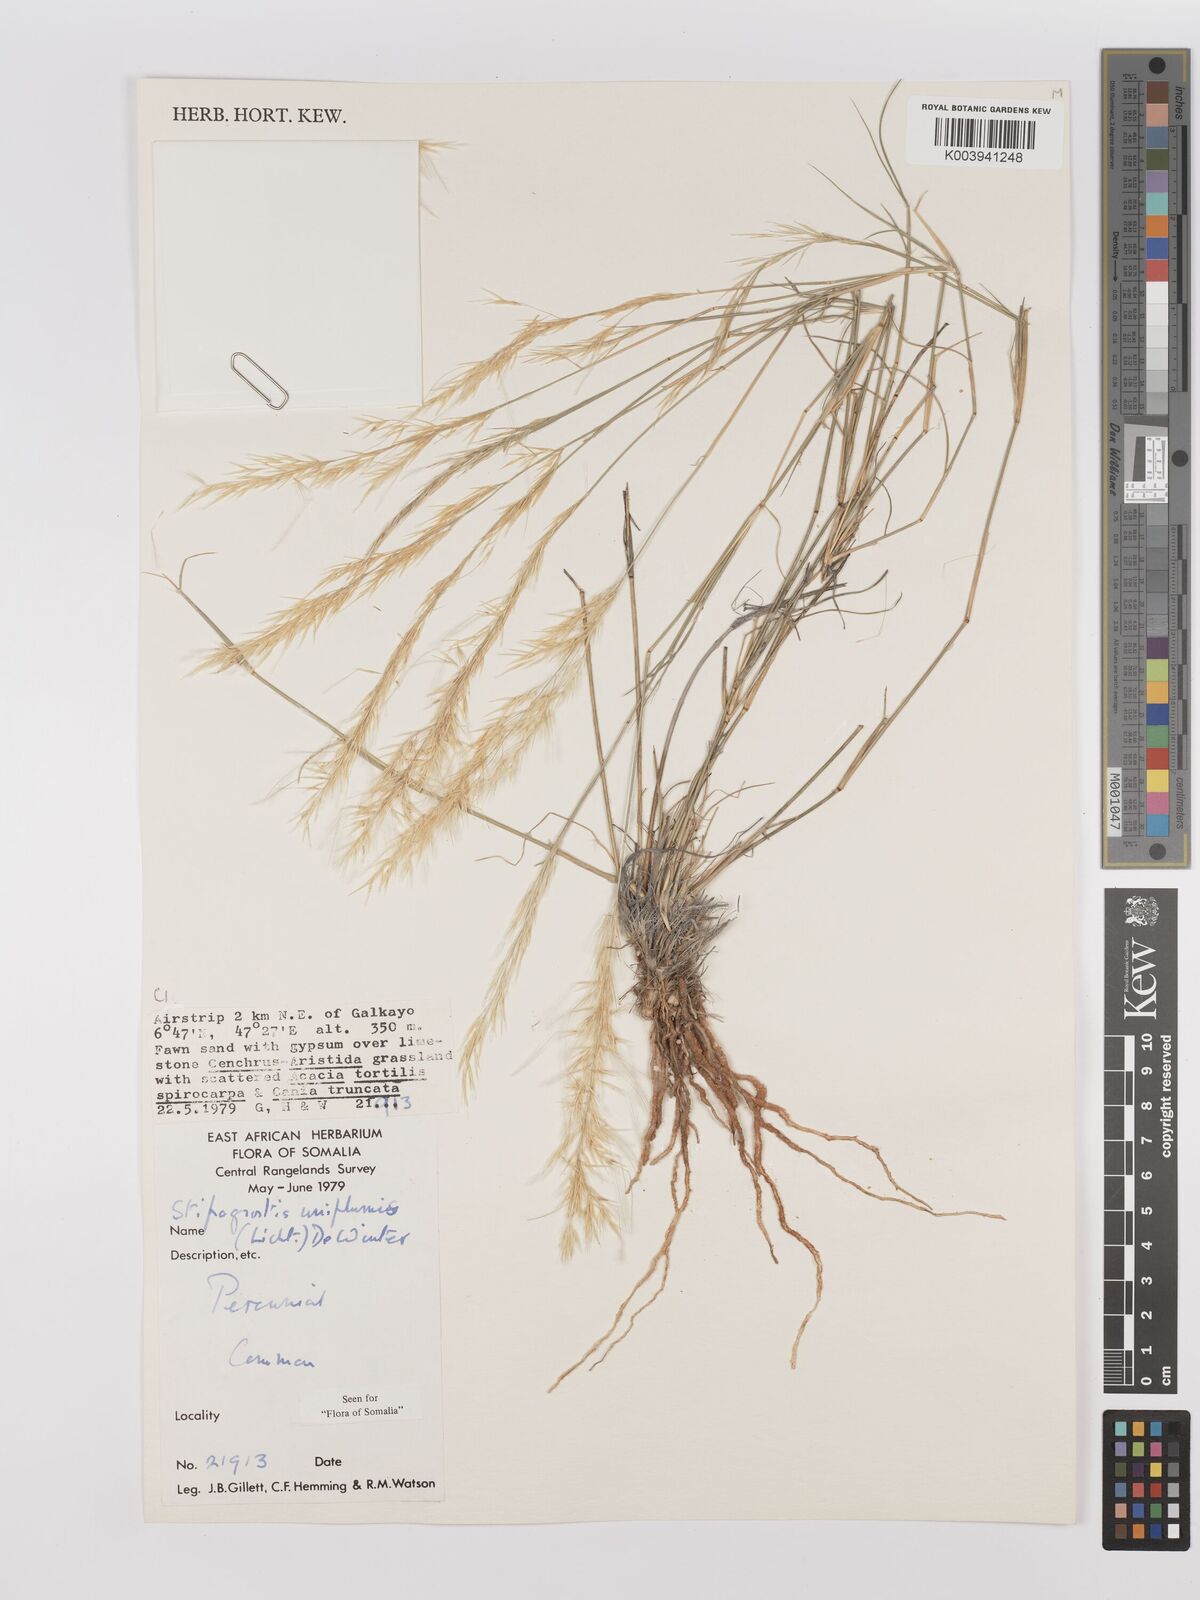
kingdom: Plantae
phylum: Tracheophyta
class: Liliopsida
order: Poales
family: Poaceae
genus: Stipagrostis
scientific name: Stipagrostis uniplumis
